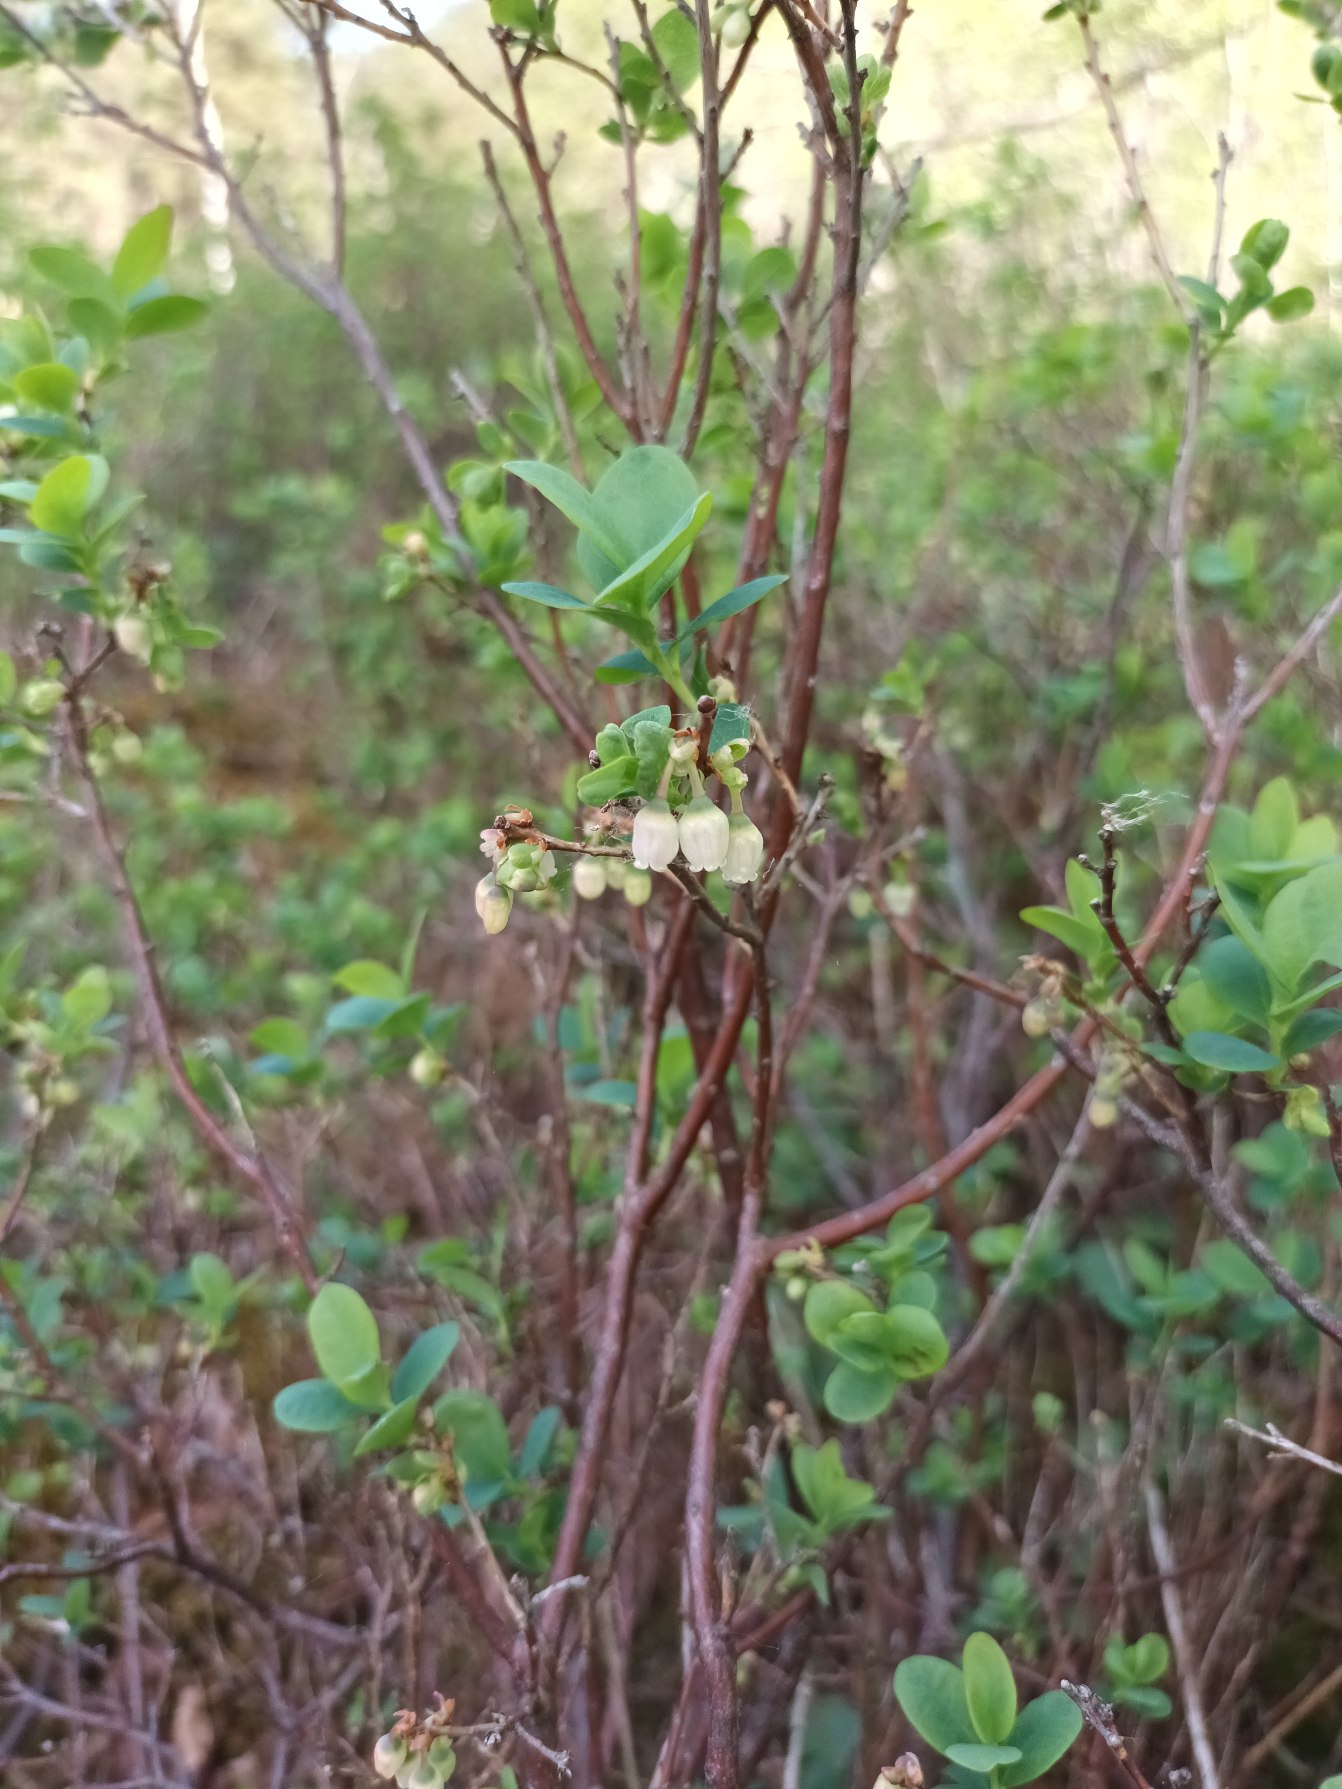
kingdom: Plantae
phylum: Tracheophyta
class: Magnoliopsida
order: Ericales
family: Ericaceae
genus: Vaccinium
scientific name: Vaccinium uliginosum
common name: Mose-bølle
